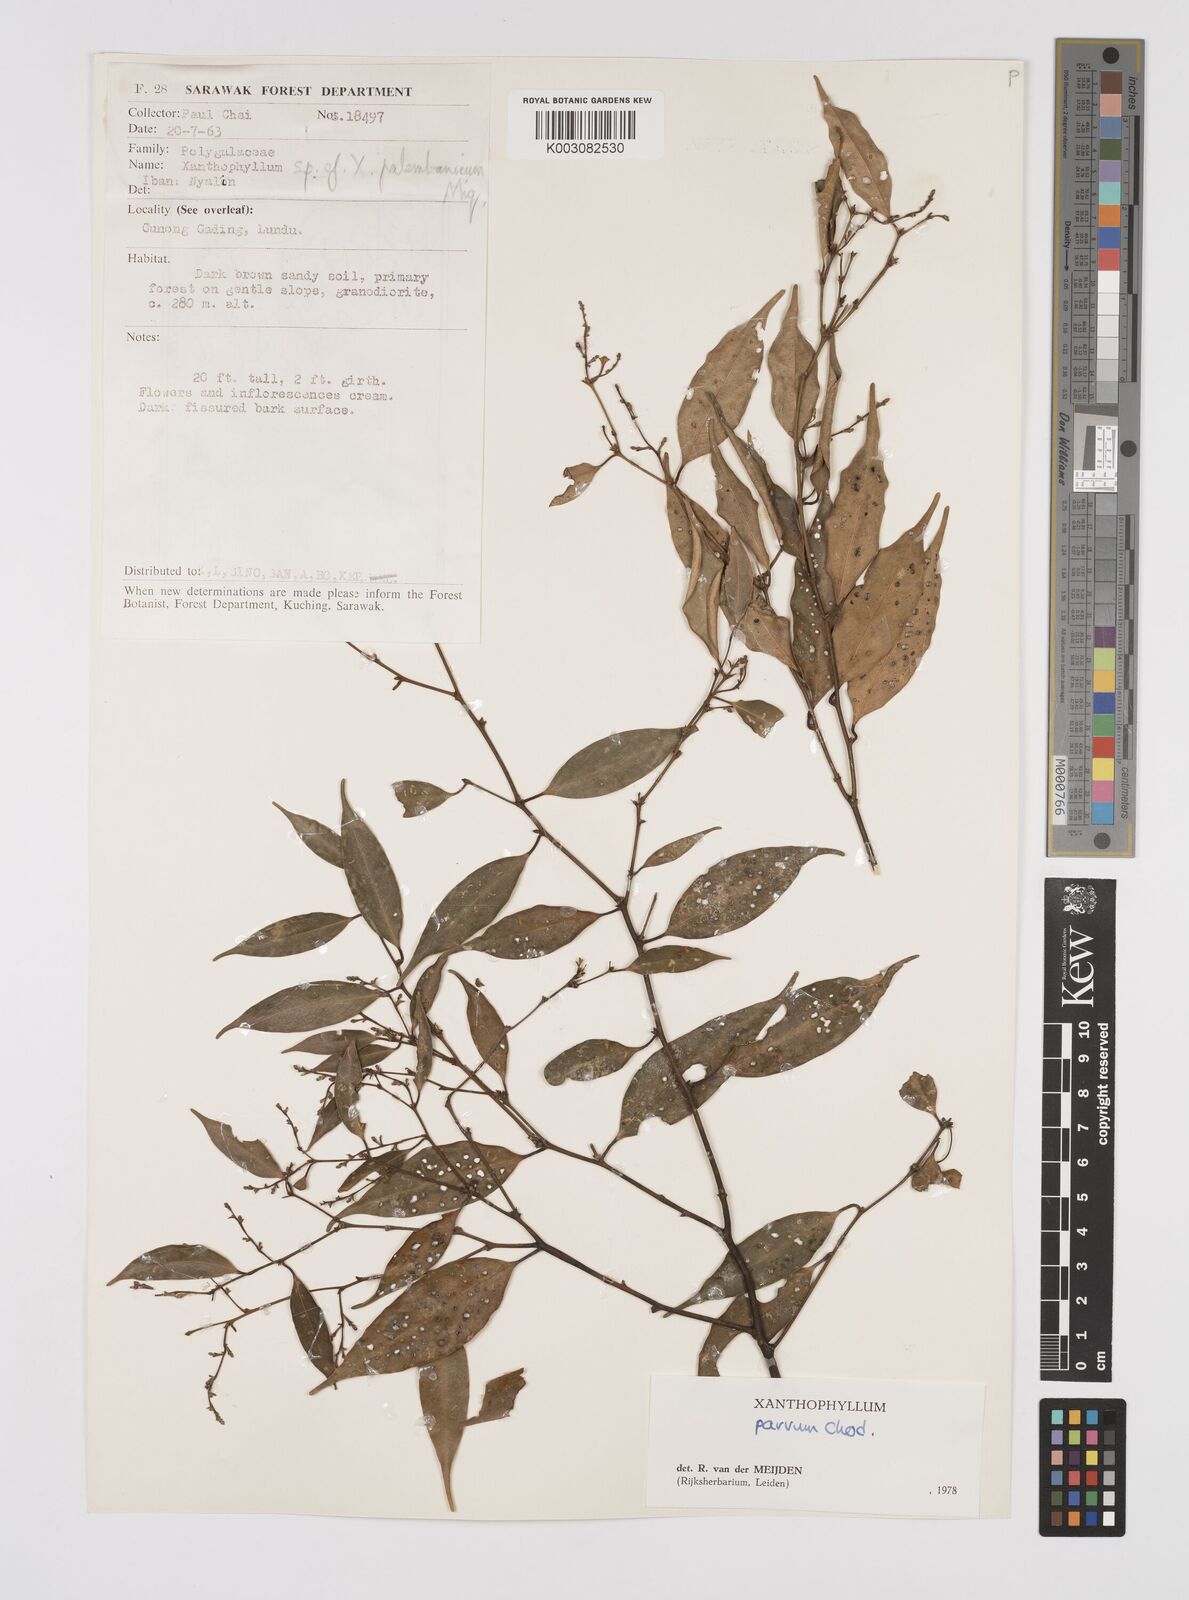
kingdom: Plantae
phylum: Tracheophyta
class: Magnoliopsida
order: Fabales
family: Polygalaceae
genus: Xanthophyllum
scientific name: Xanthophyllum griffithii
